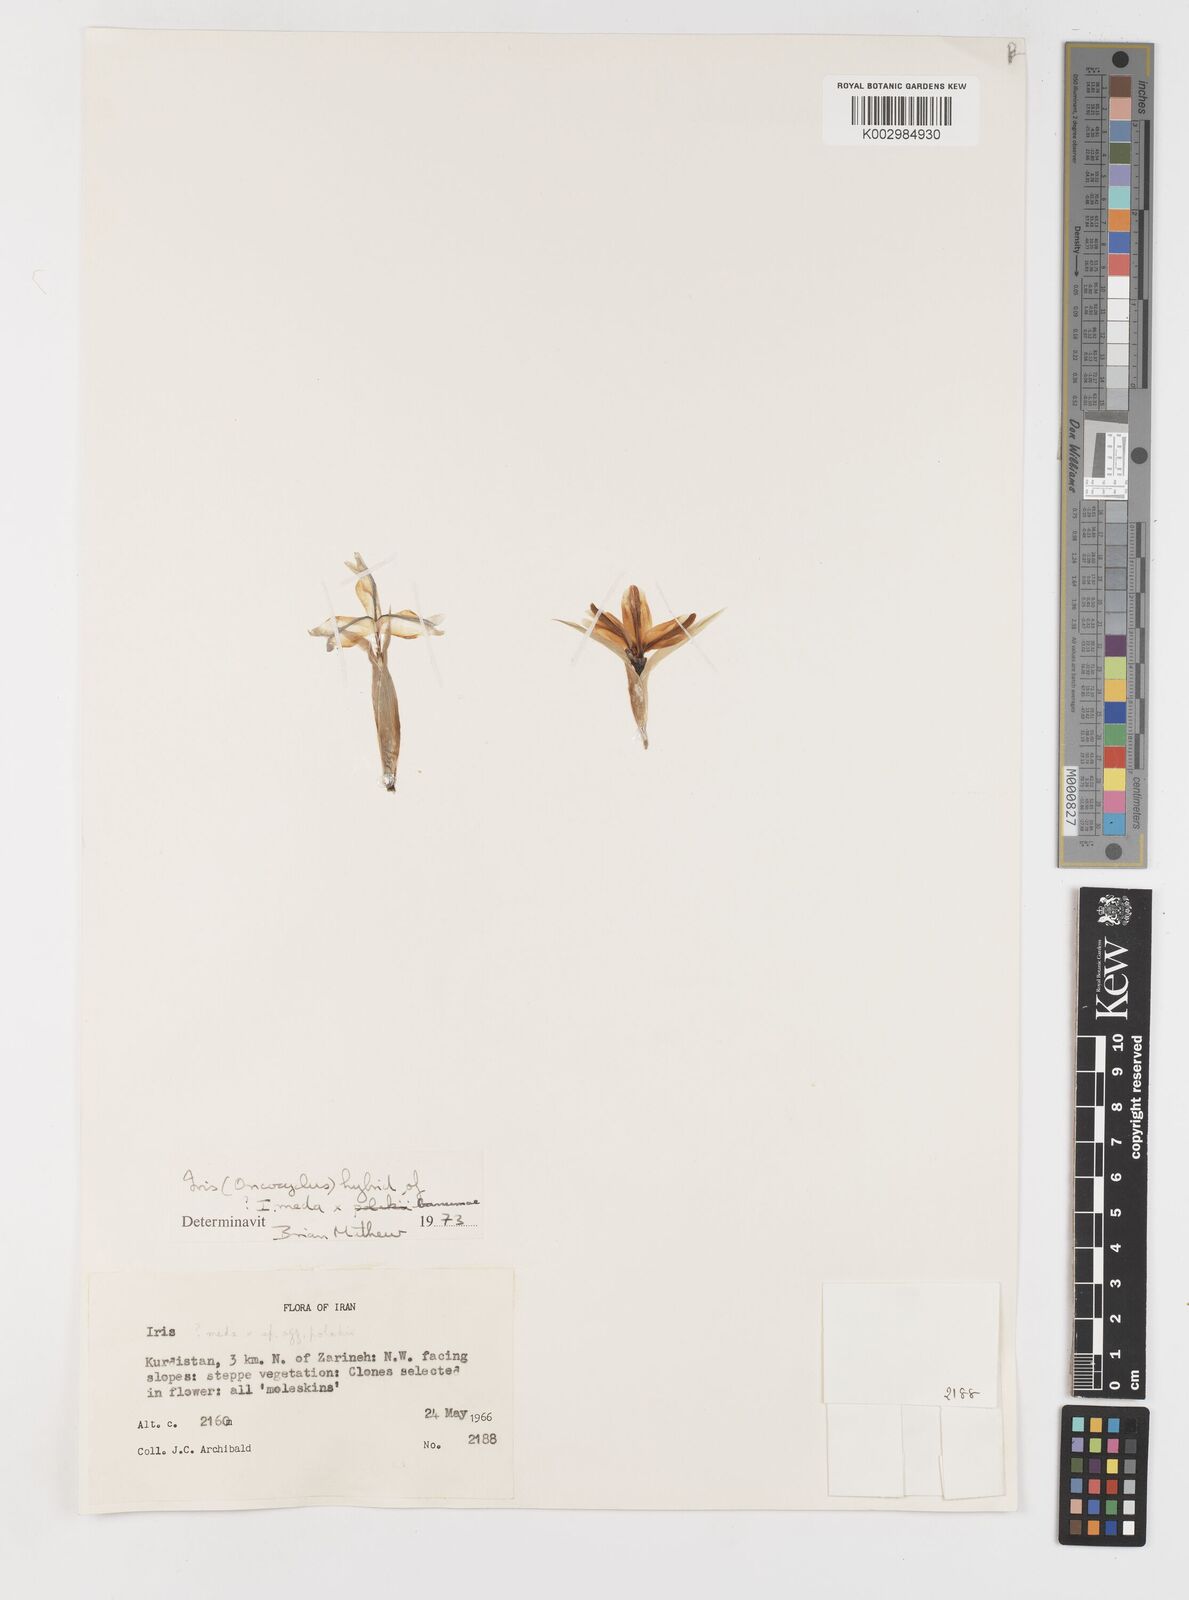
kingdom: Plantae
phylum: Tracheophyta
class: Liliopsida
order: Asparagales
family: Iridaceae
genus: Iris
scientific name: Iris meda
